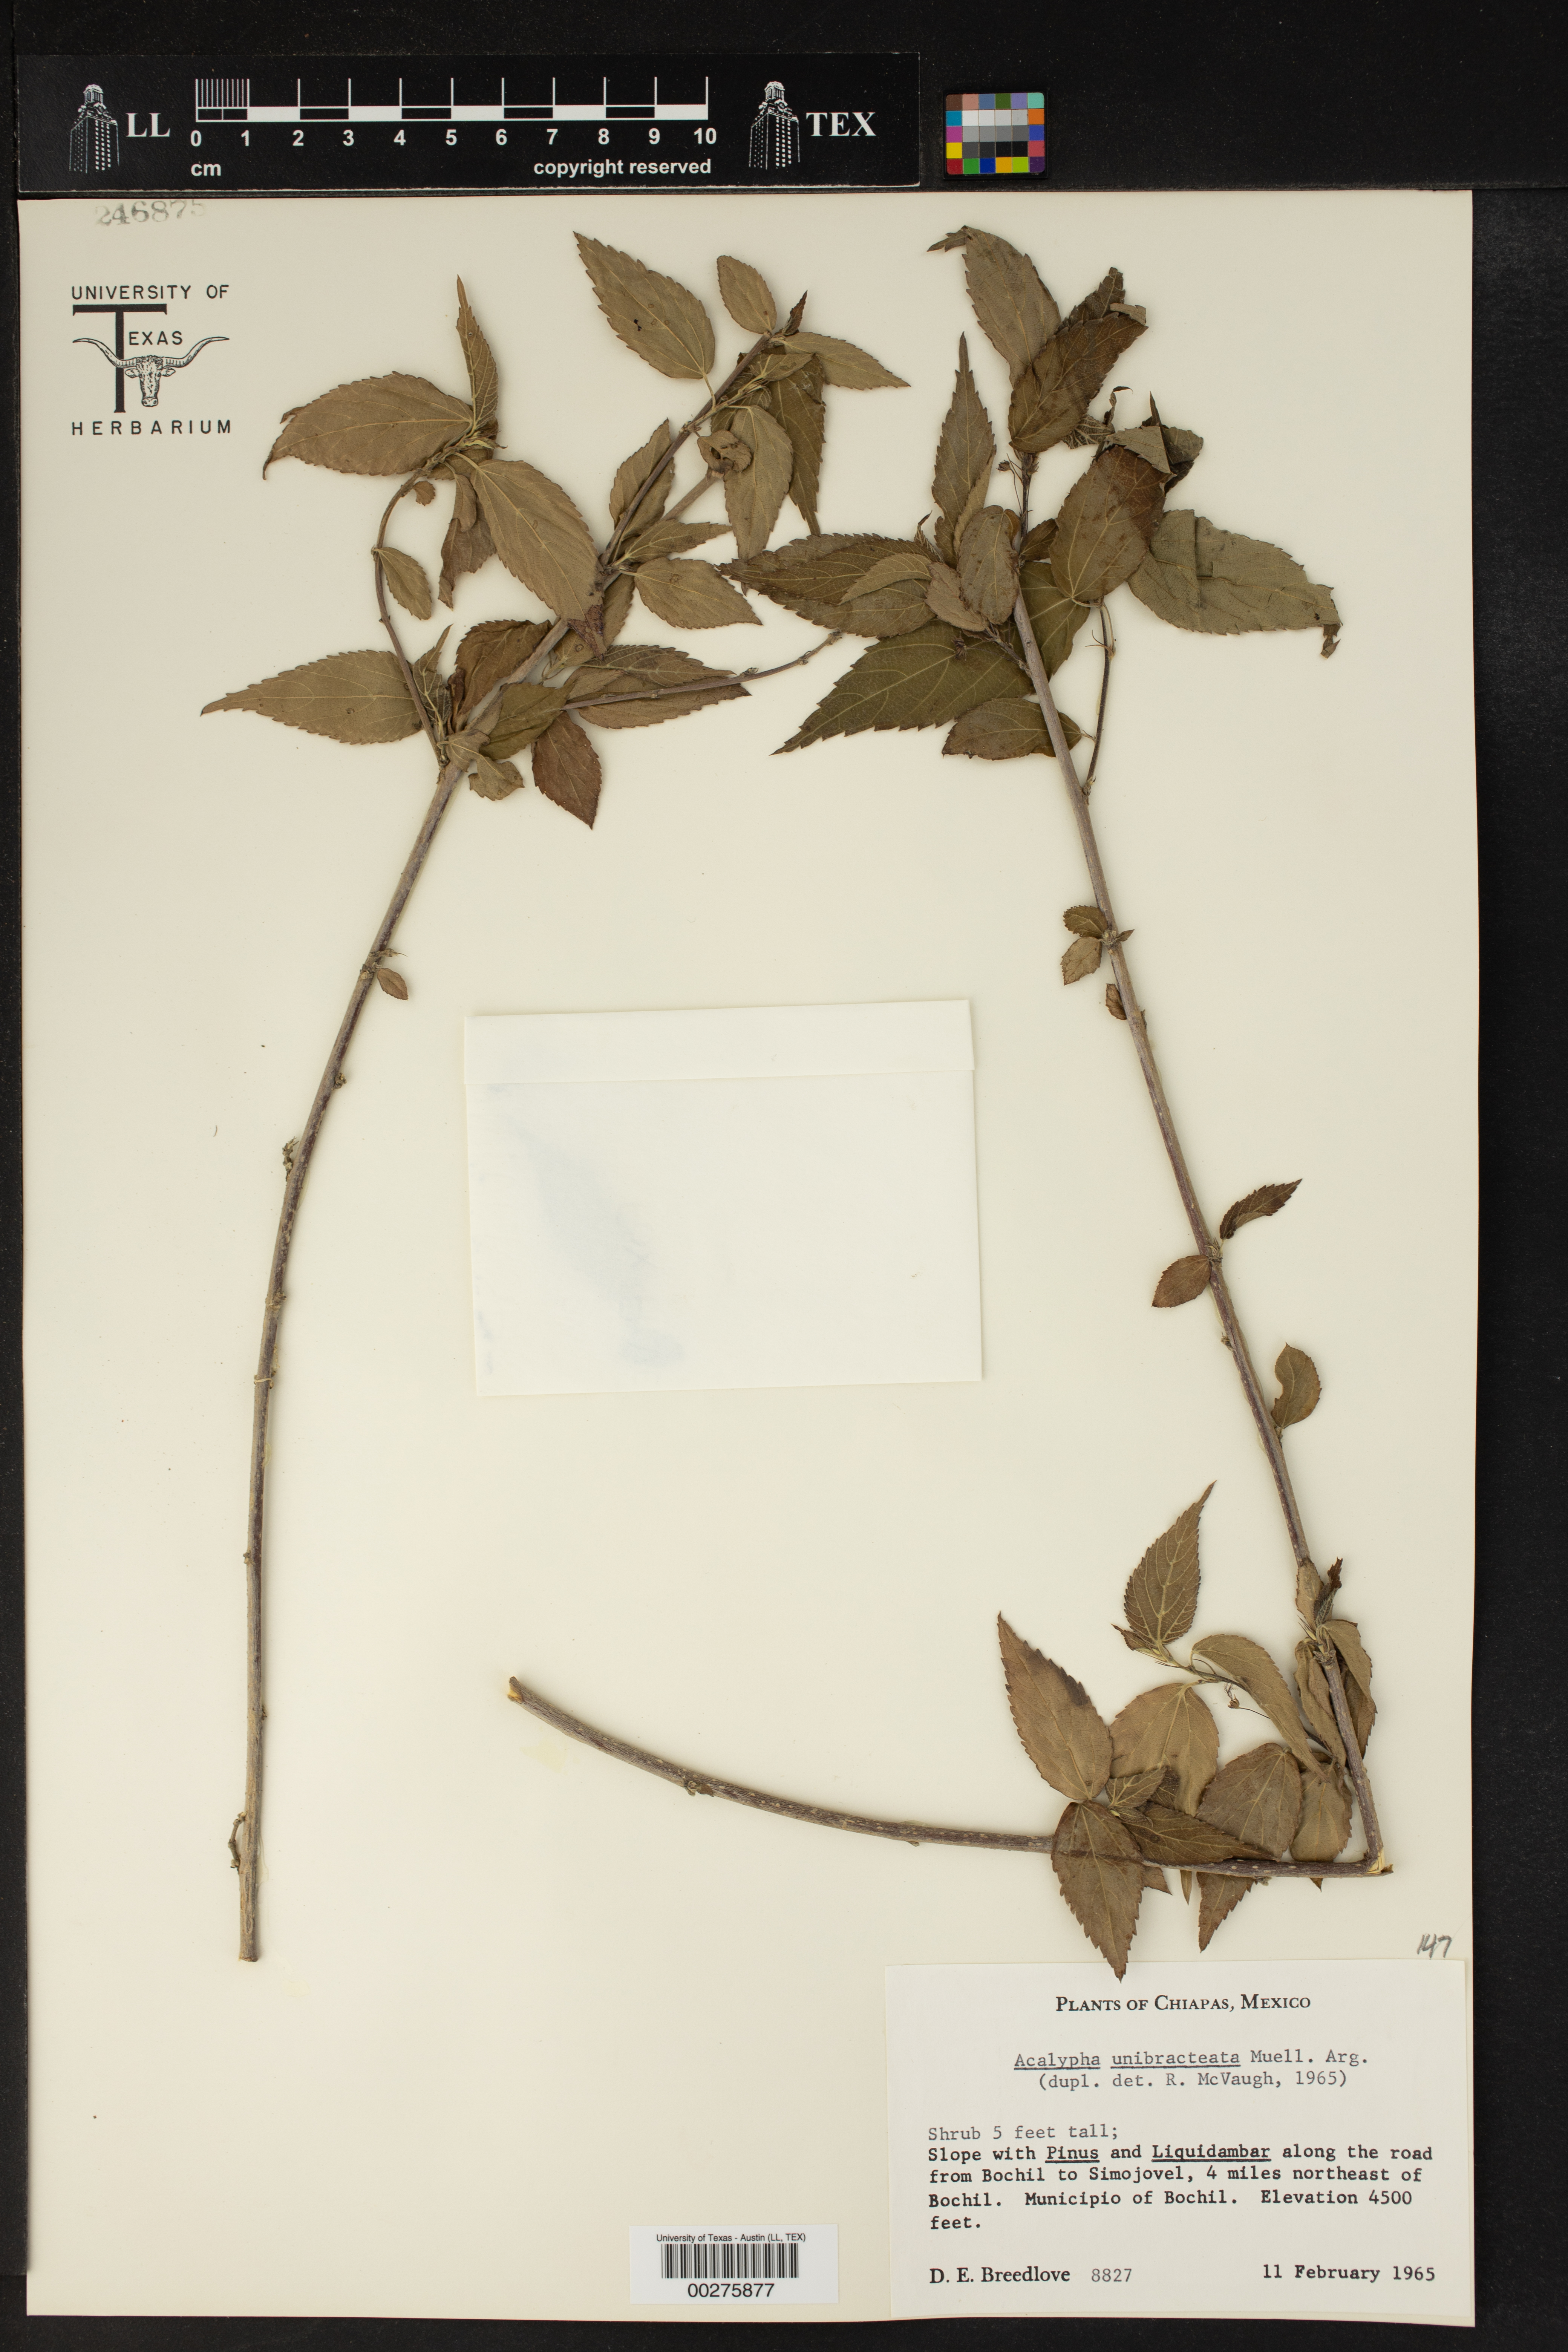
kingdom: Plantae
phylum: Tracheophyta
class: Magnoliopsida
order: Malpighiales
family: Euphorbiaceae
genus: Acalypha
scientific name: Acalypha leptopoda
